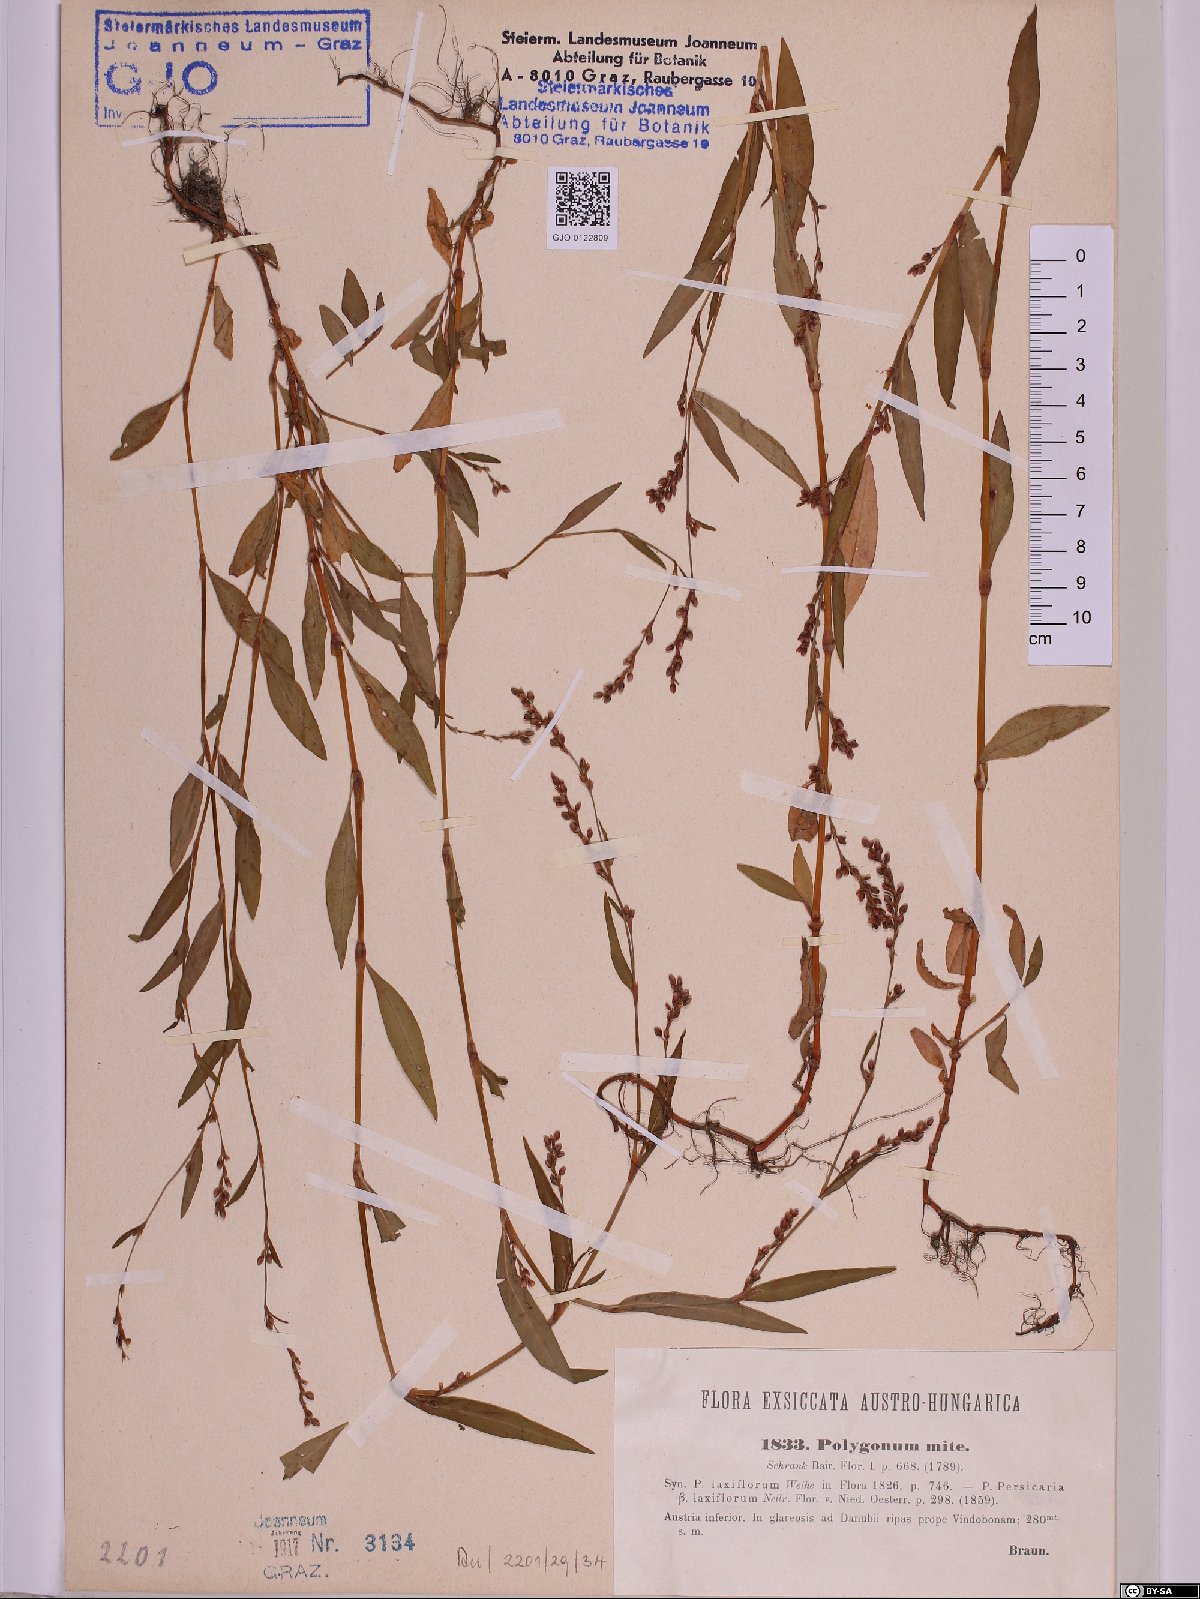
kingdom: Plantae
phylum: Tracheophyta
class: Magnoliopsida
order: Caryophyllales
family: Polygonaceae
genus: Persicaria
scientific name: Persicaria mitis
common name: Tasteless water-pepper
